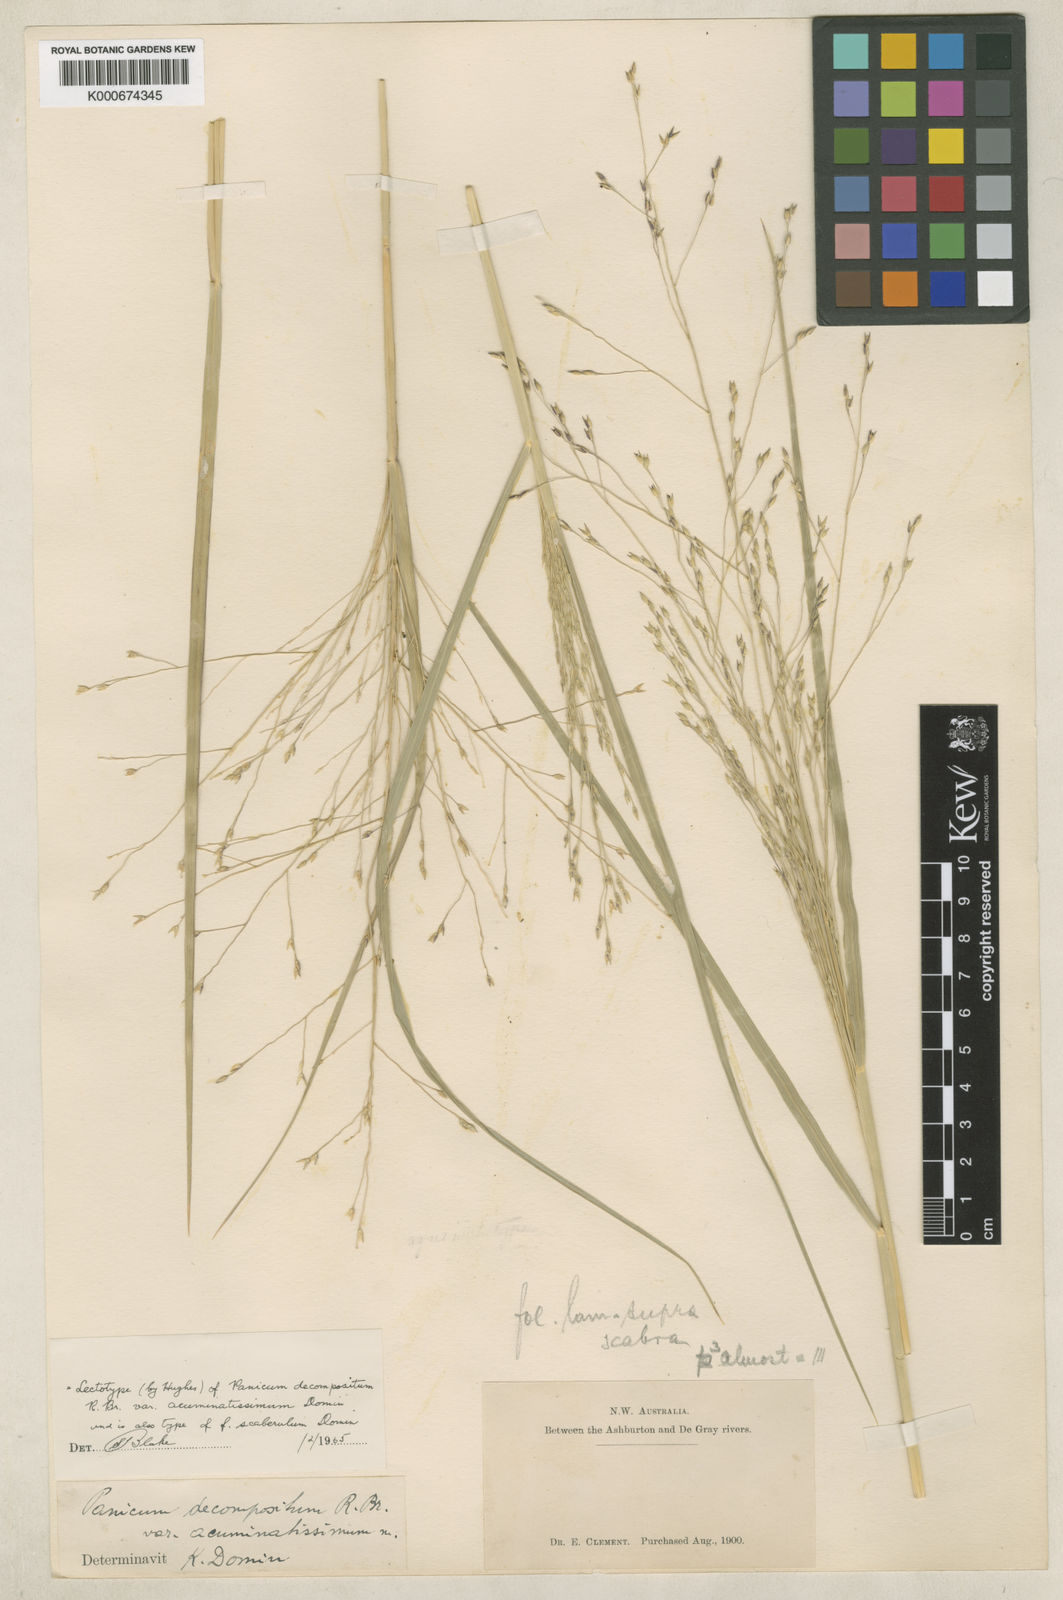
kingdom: Plantae
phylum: Tracheophyta
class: Liliopsida
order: Poales
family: Poaceae
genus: Panicum
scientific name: Panicum latzii
